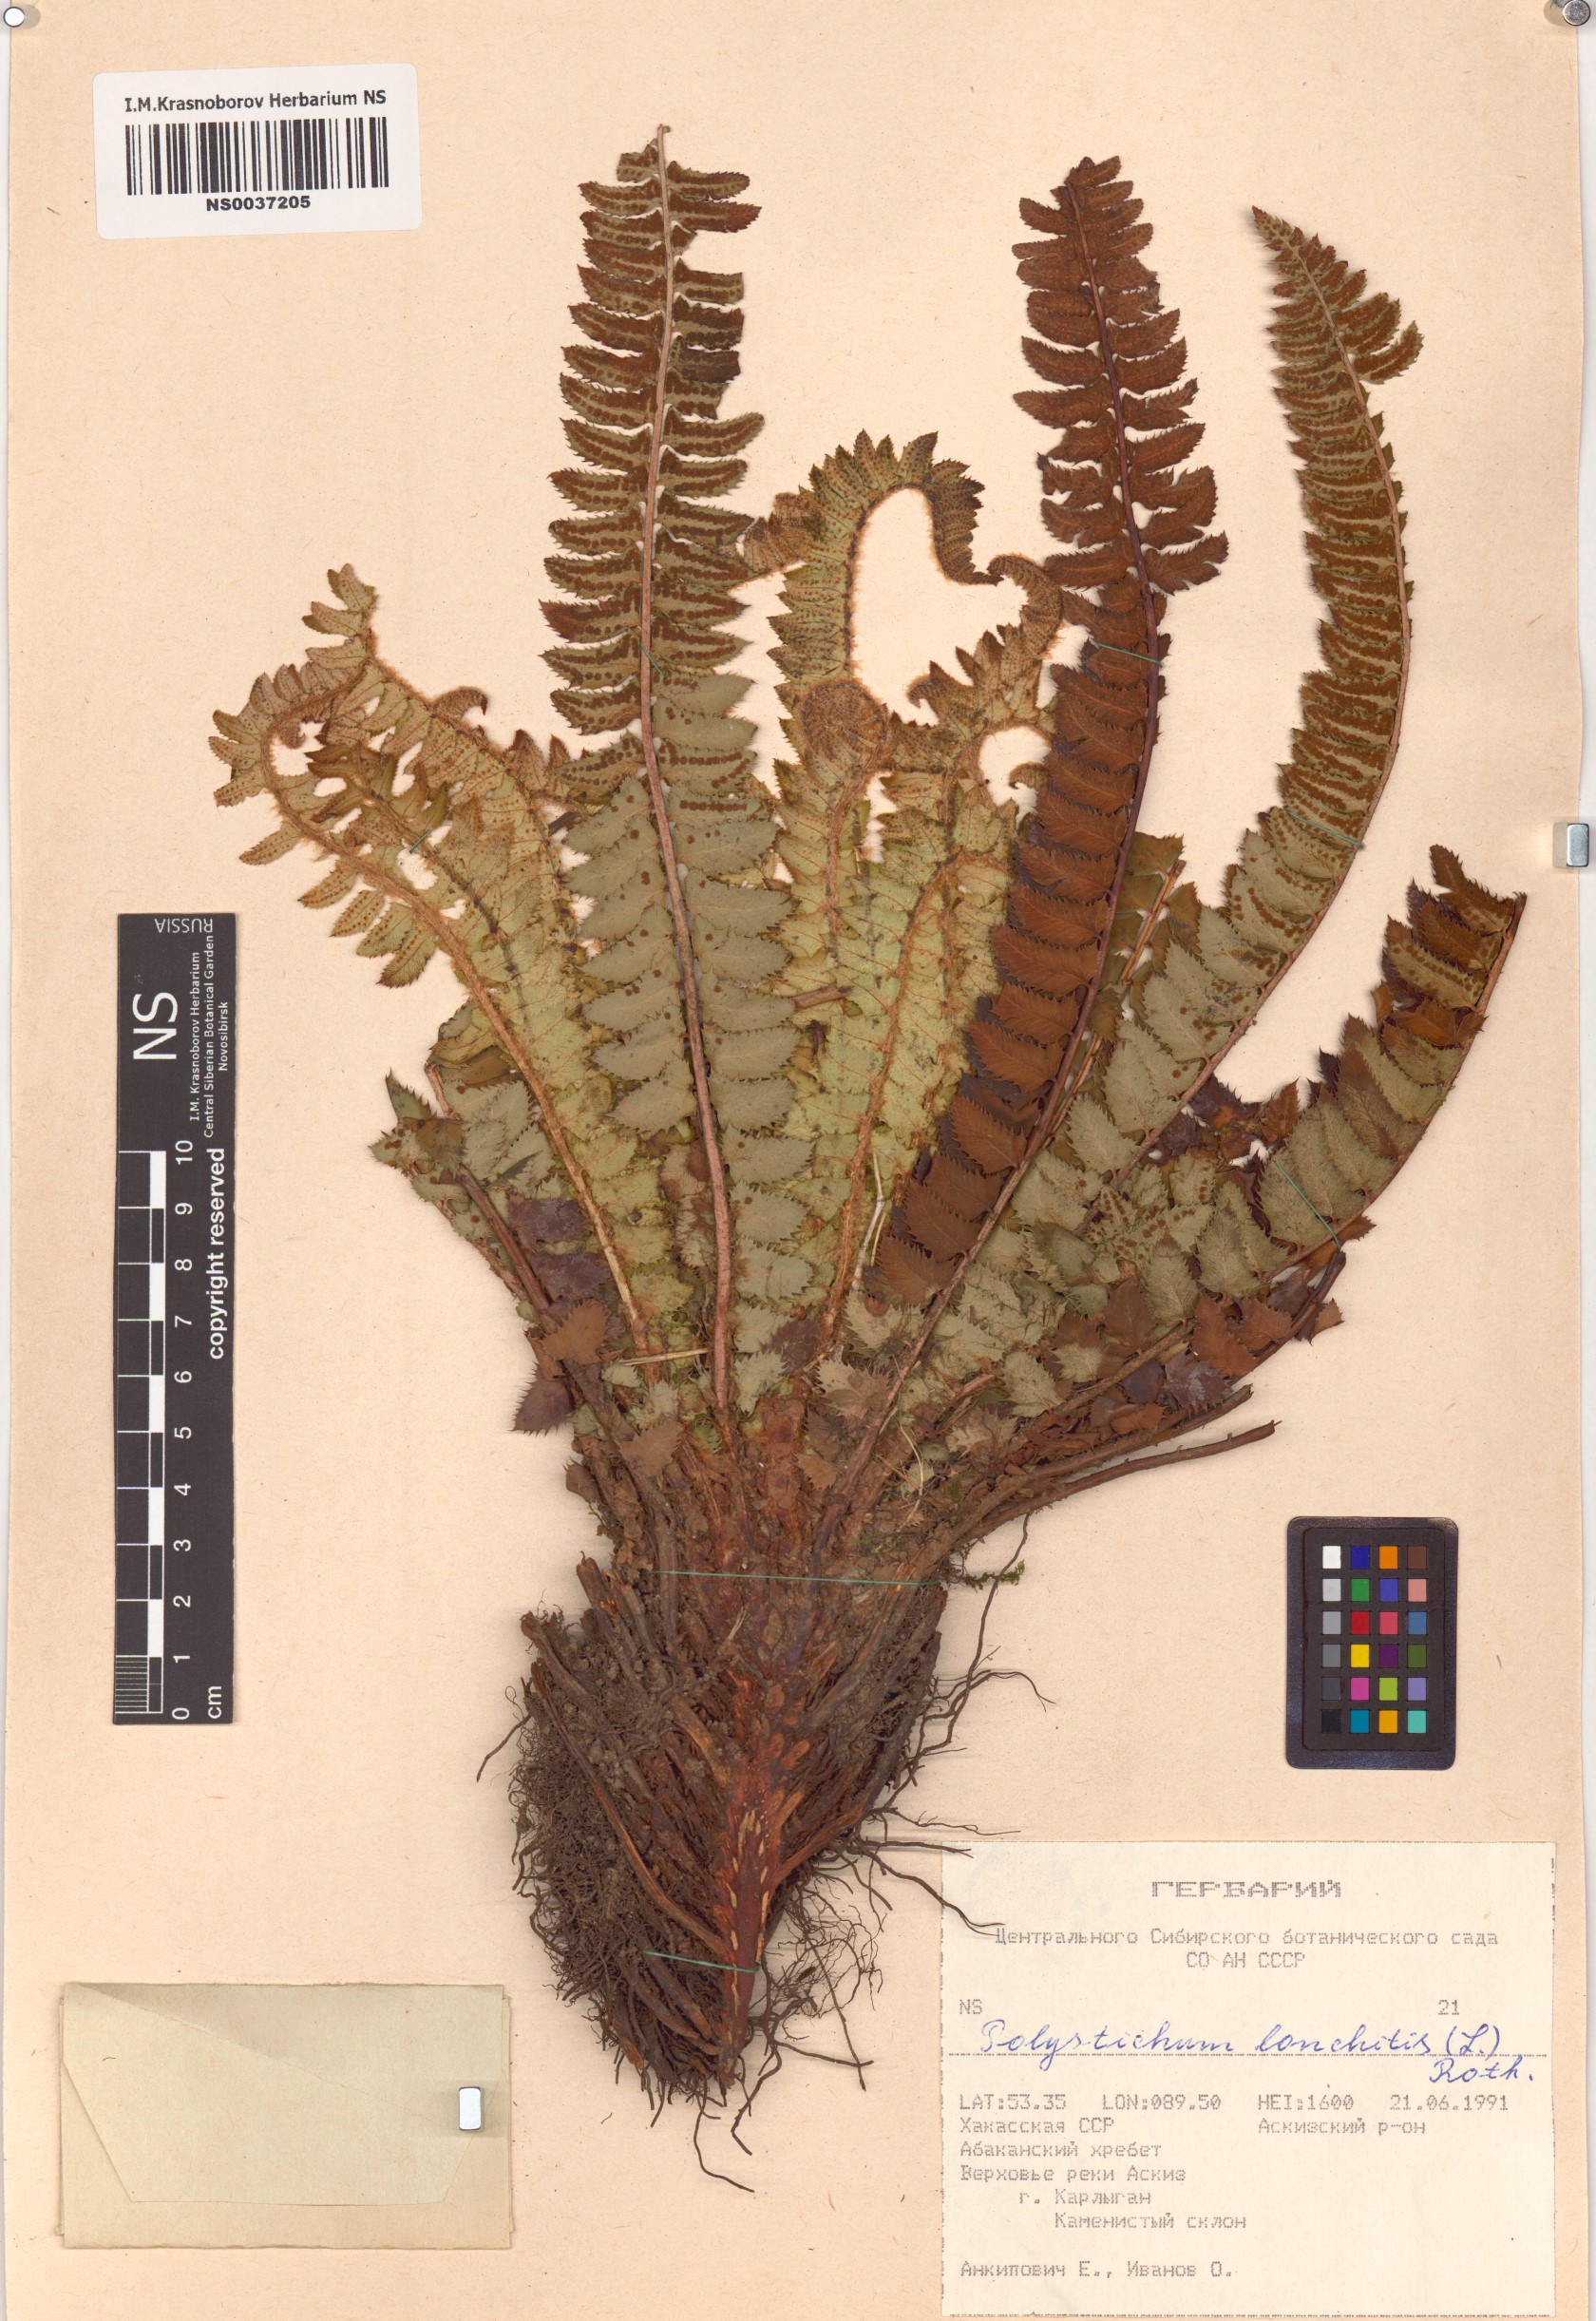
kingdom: Plantae
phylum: Tracheophyta
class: Polypodiopsida
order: Polypodiales
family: Dryopteridaceae
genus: Polystichum
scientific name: Polystichum lonchitis
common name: Holly fern
